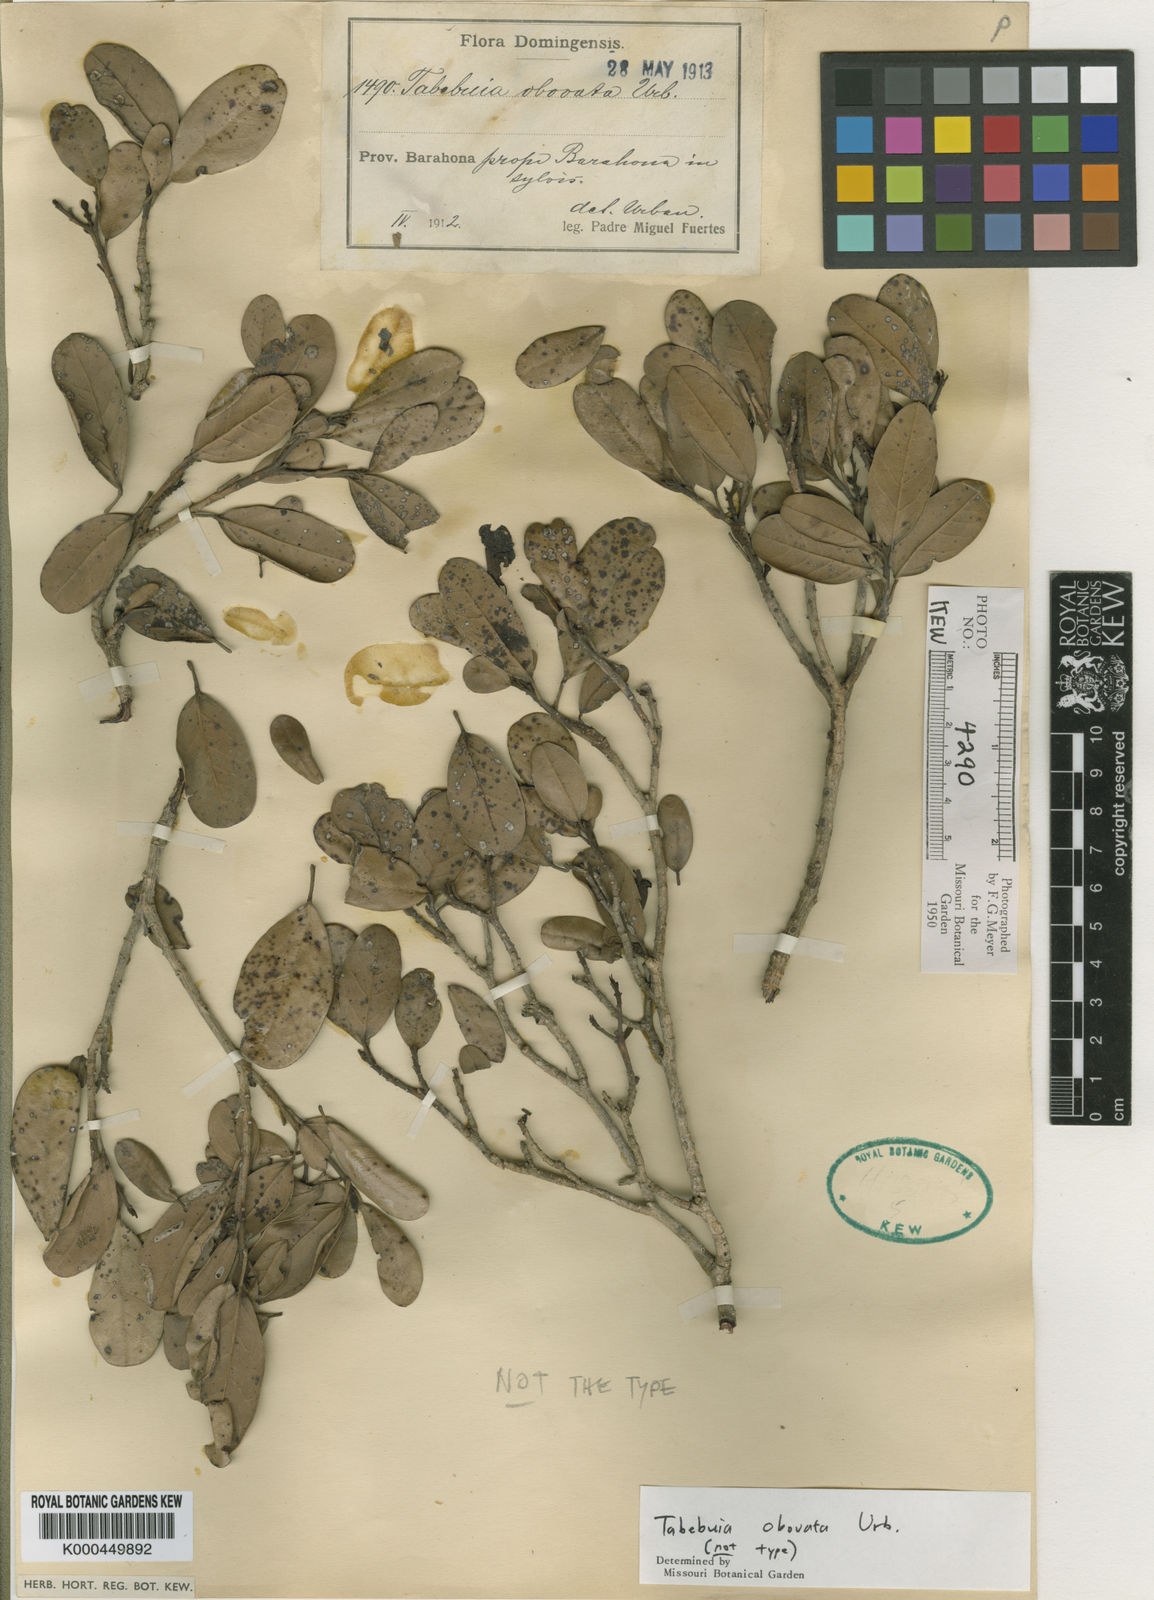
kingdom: Plantae
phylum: Tracheophyta
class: Magnoliopsida
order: Lamiales
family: Bignoniaceae
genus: Tabebuia
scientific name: Tabebuia obovata
